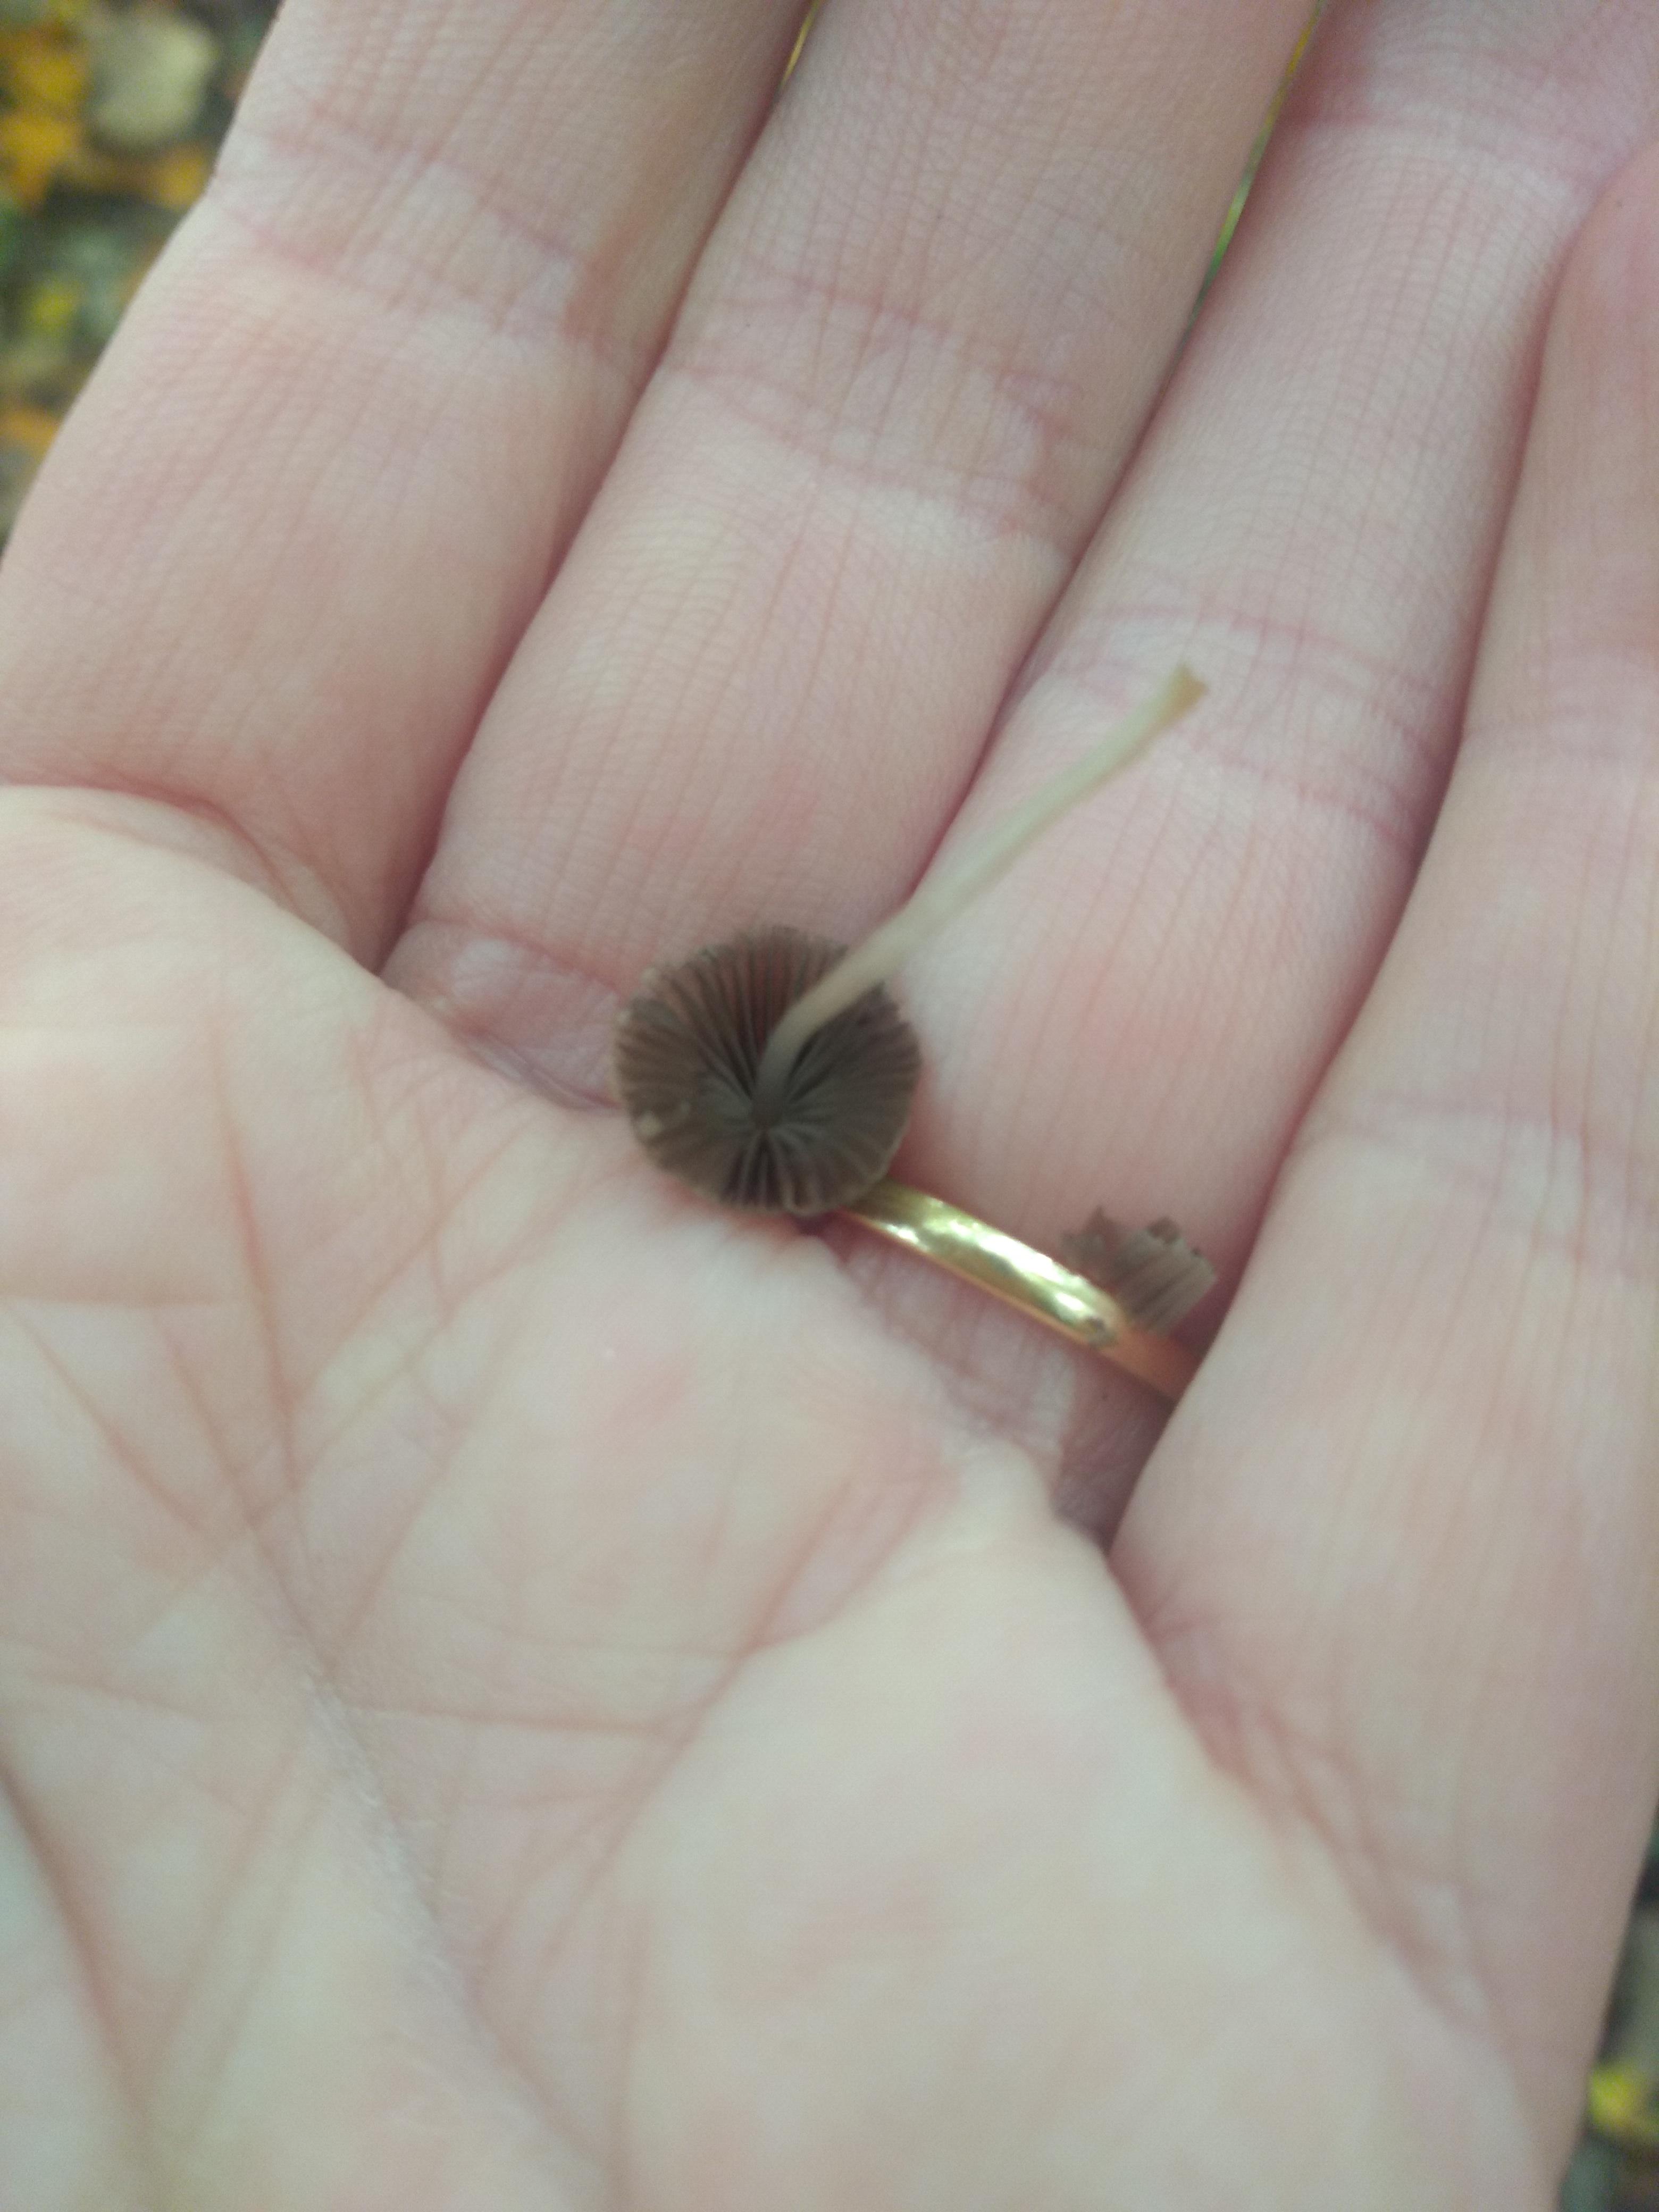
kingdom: Fungi
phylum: Basidiomycota
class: Agaricomycetes
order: Agaricales
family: Psathyrellaceae
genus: Coprinellus
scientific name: Coprinellus disseminatus
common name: bredsået blækhat
